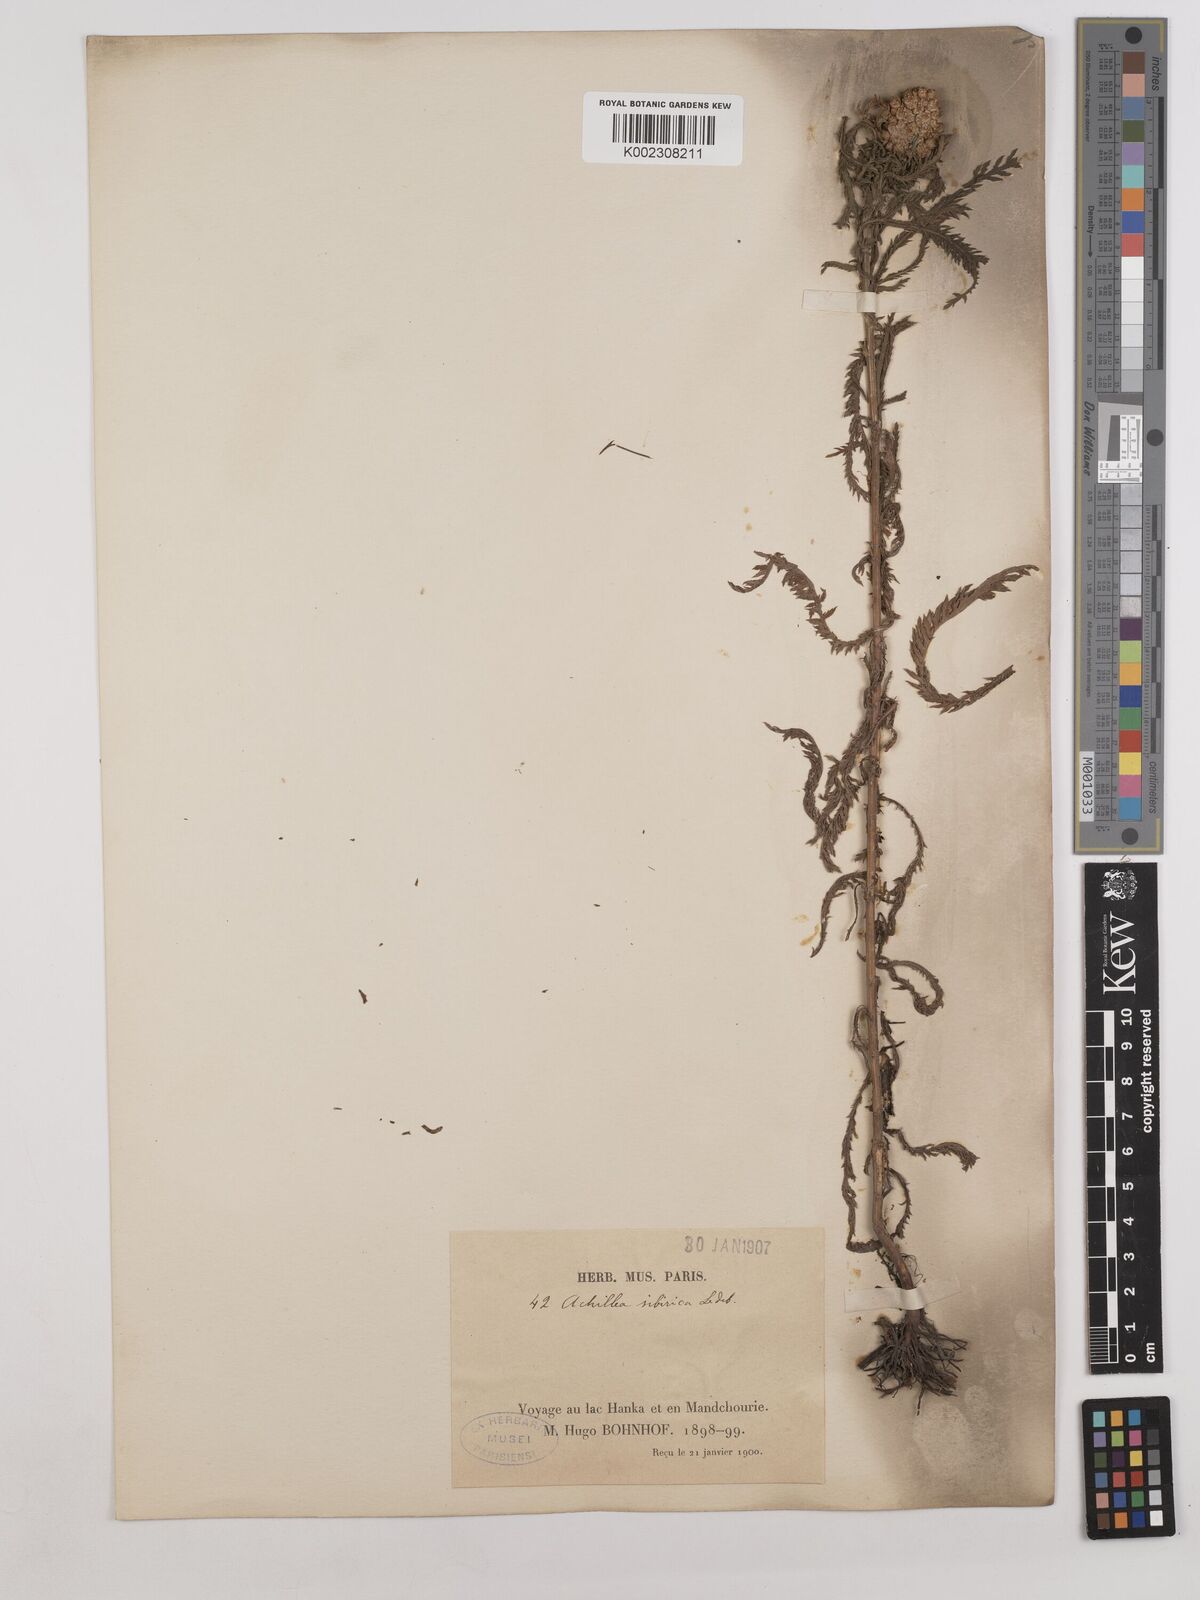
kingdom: Plantae
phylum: Tracheophyta
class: Magnoliopsida
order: Asterales
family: Asteraceae
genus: Achillea
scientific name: Achillea alpina
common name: Siberian yarrow
